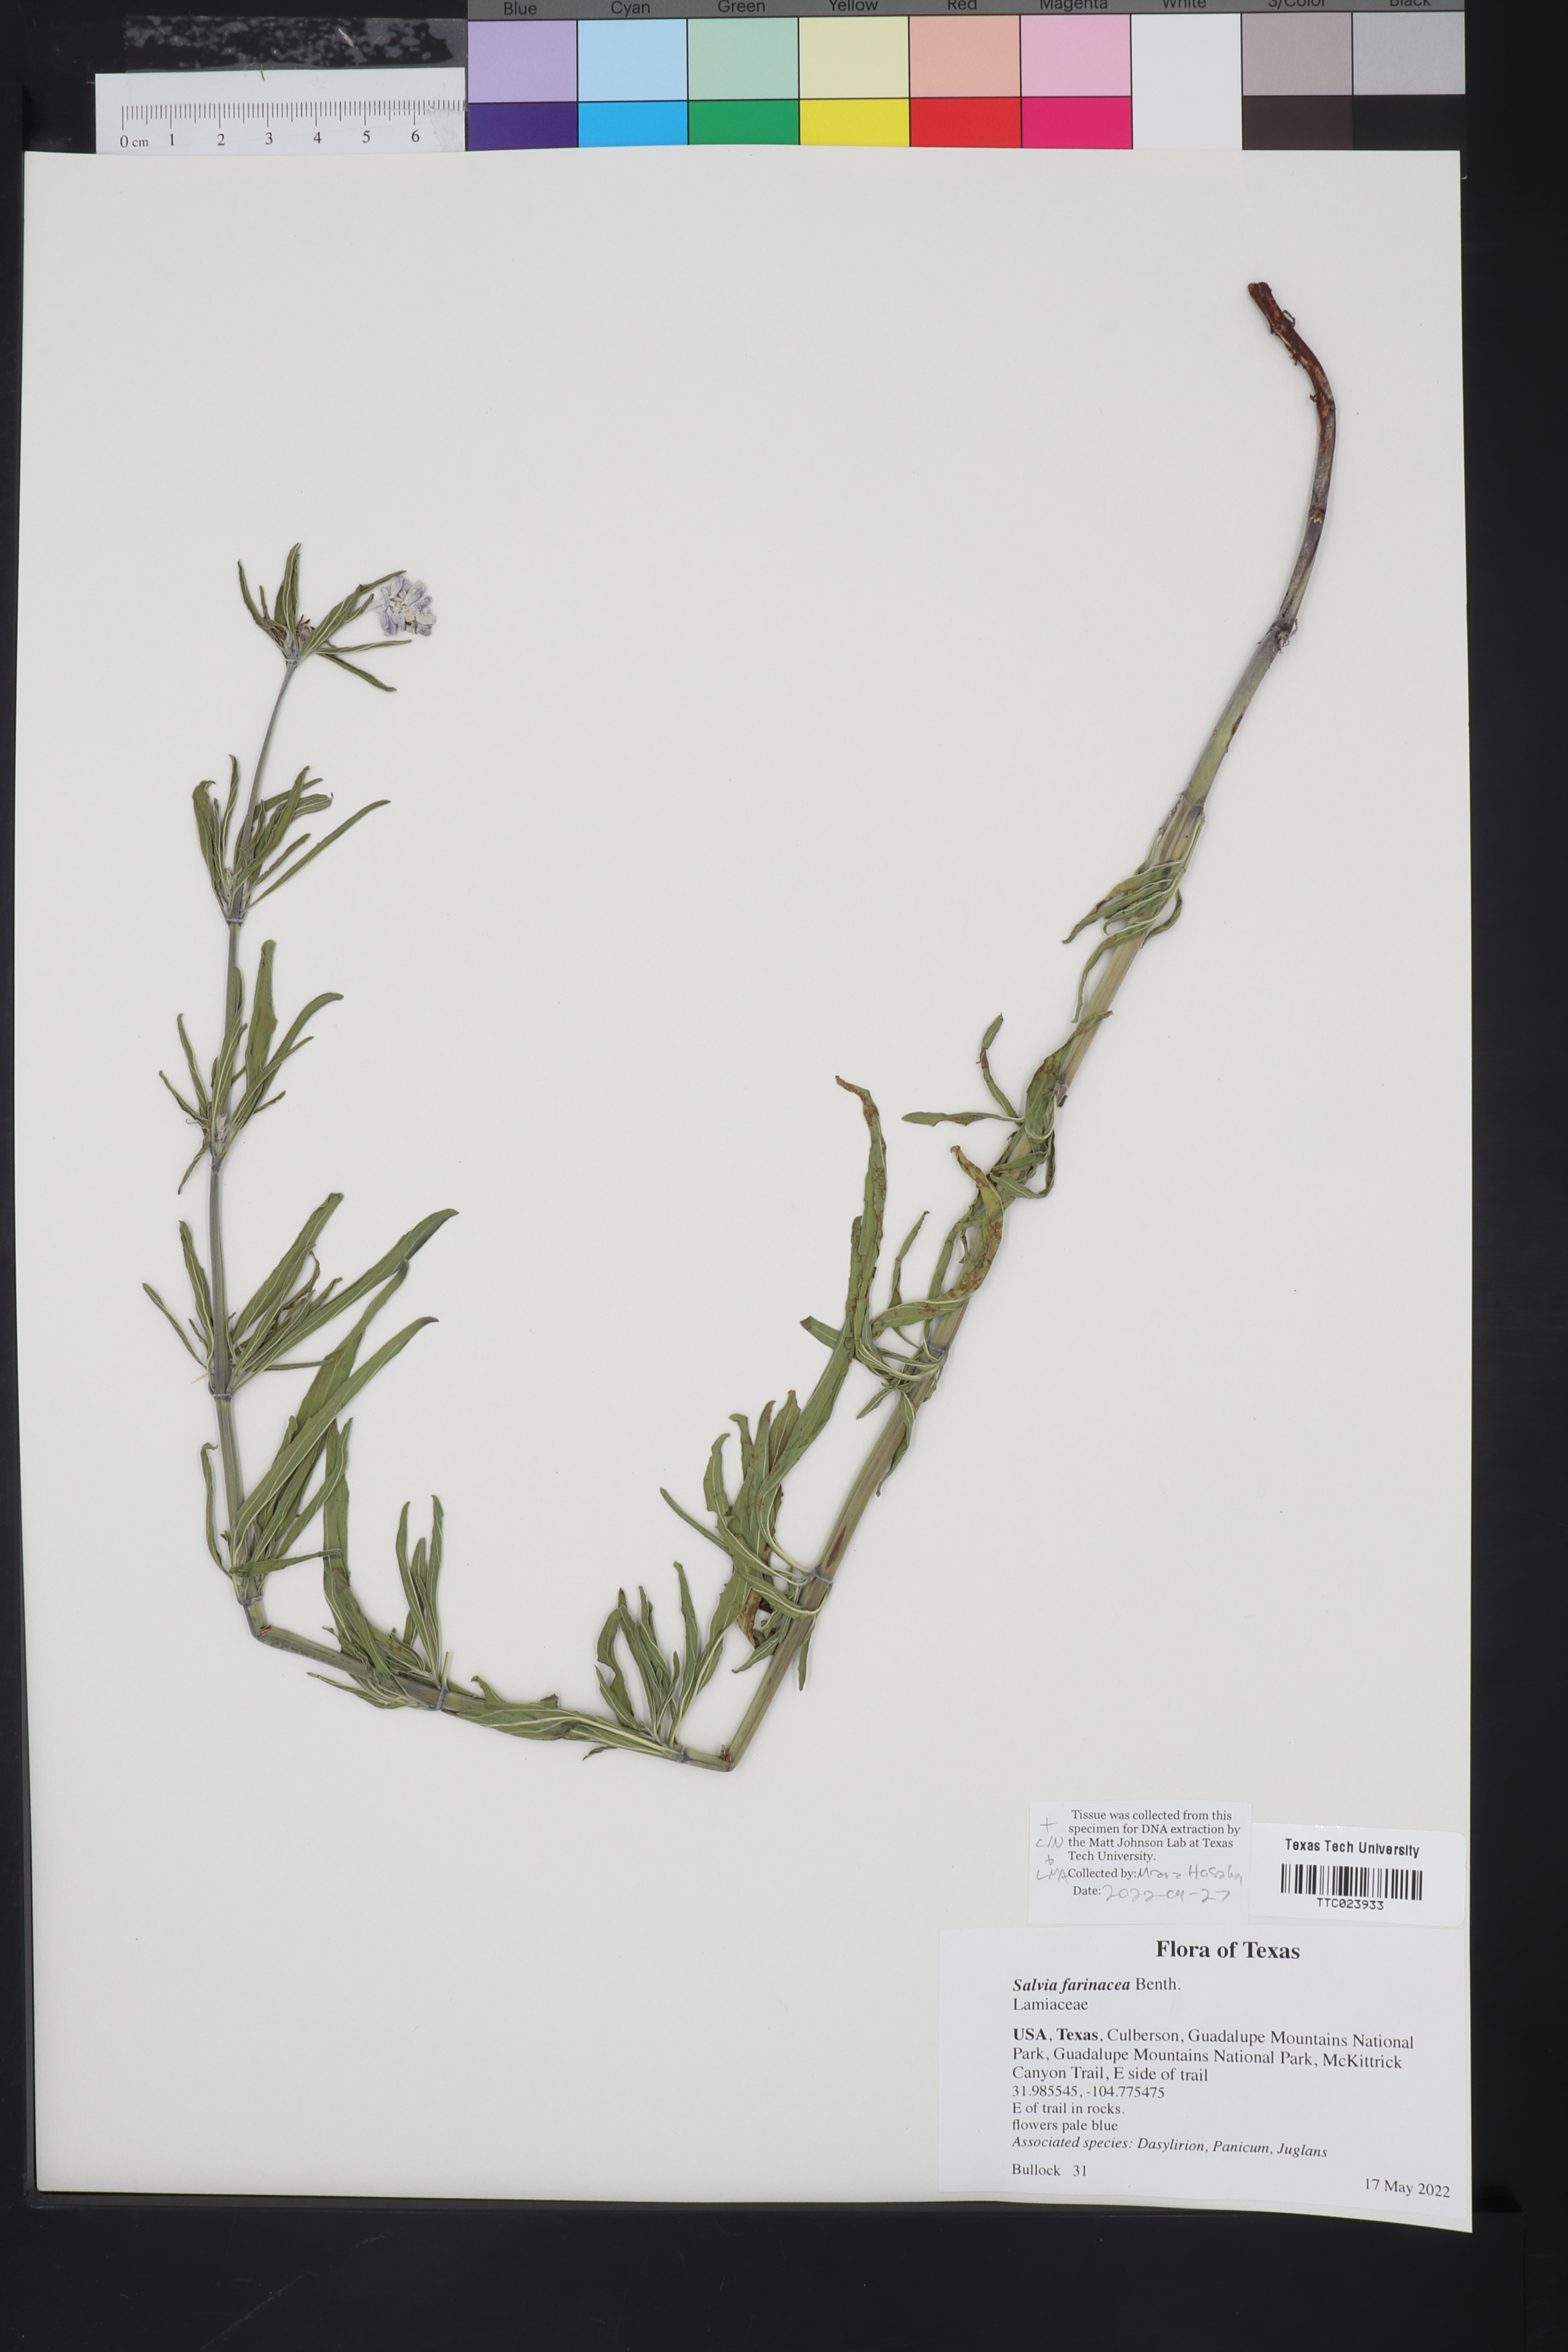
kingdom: Plantae
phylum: Tracheophyta
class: Magnoliopsida
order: Lamiales
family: Lamiaceae
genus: Salvia
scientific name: Salvia farinacea
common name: Mealy sage
